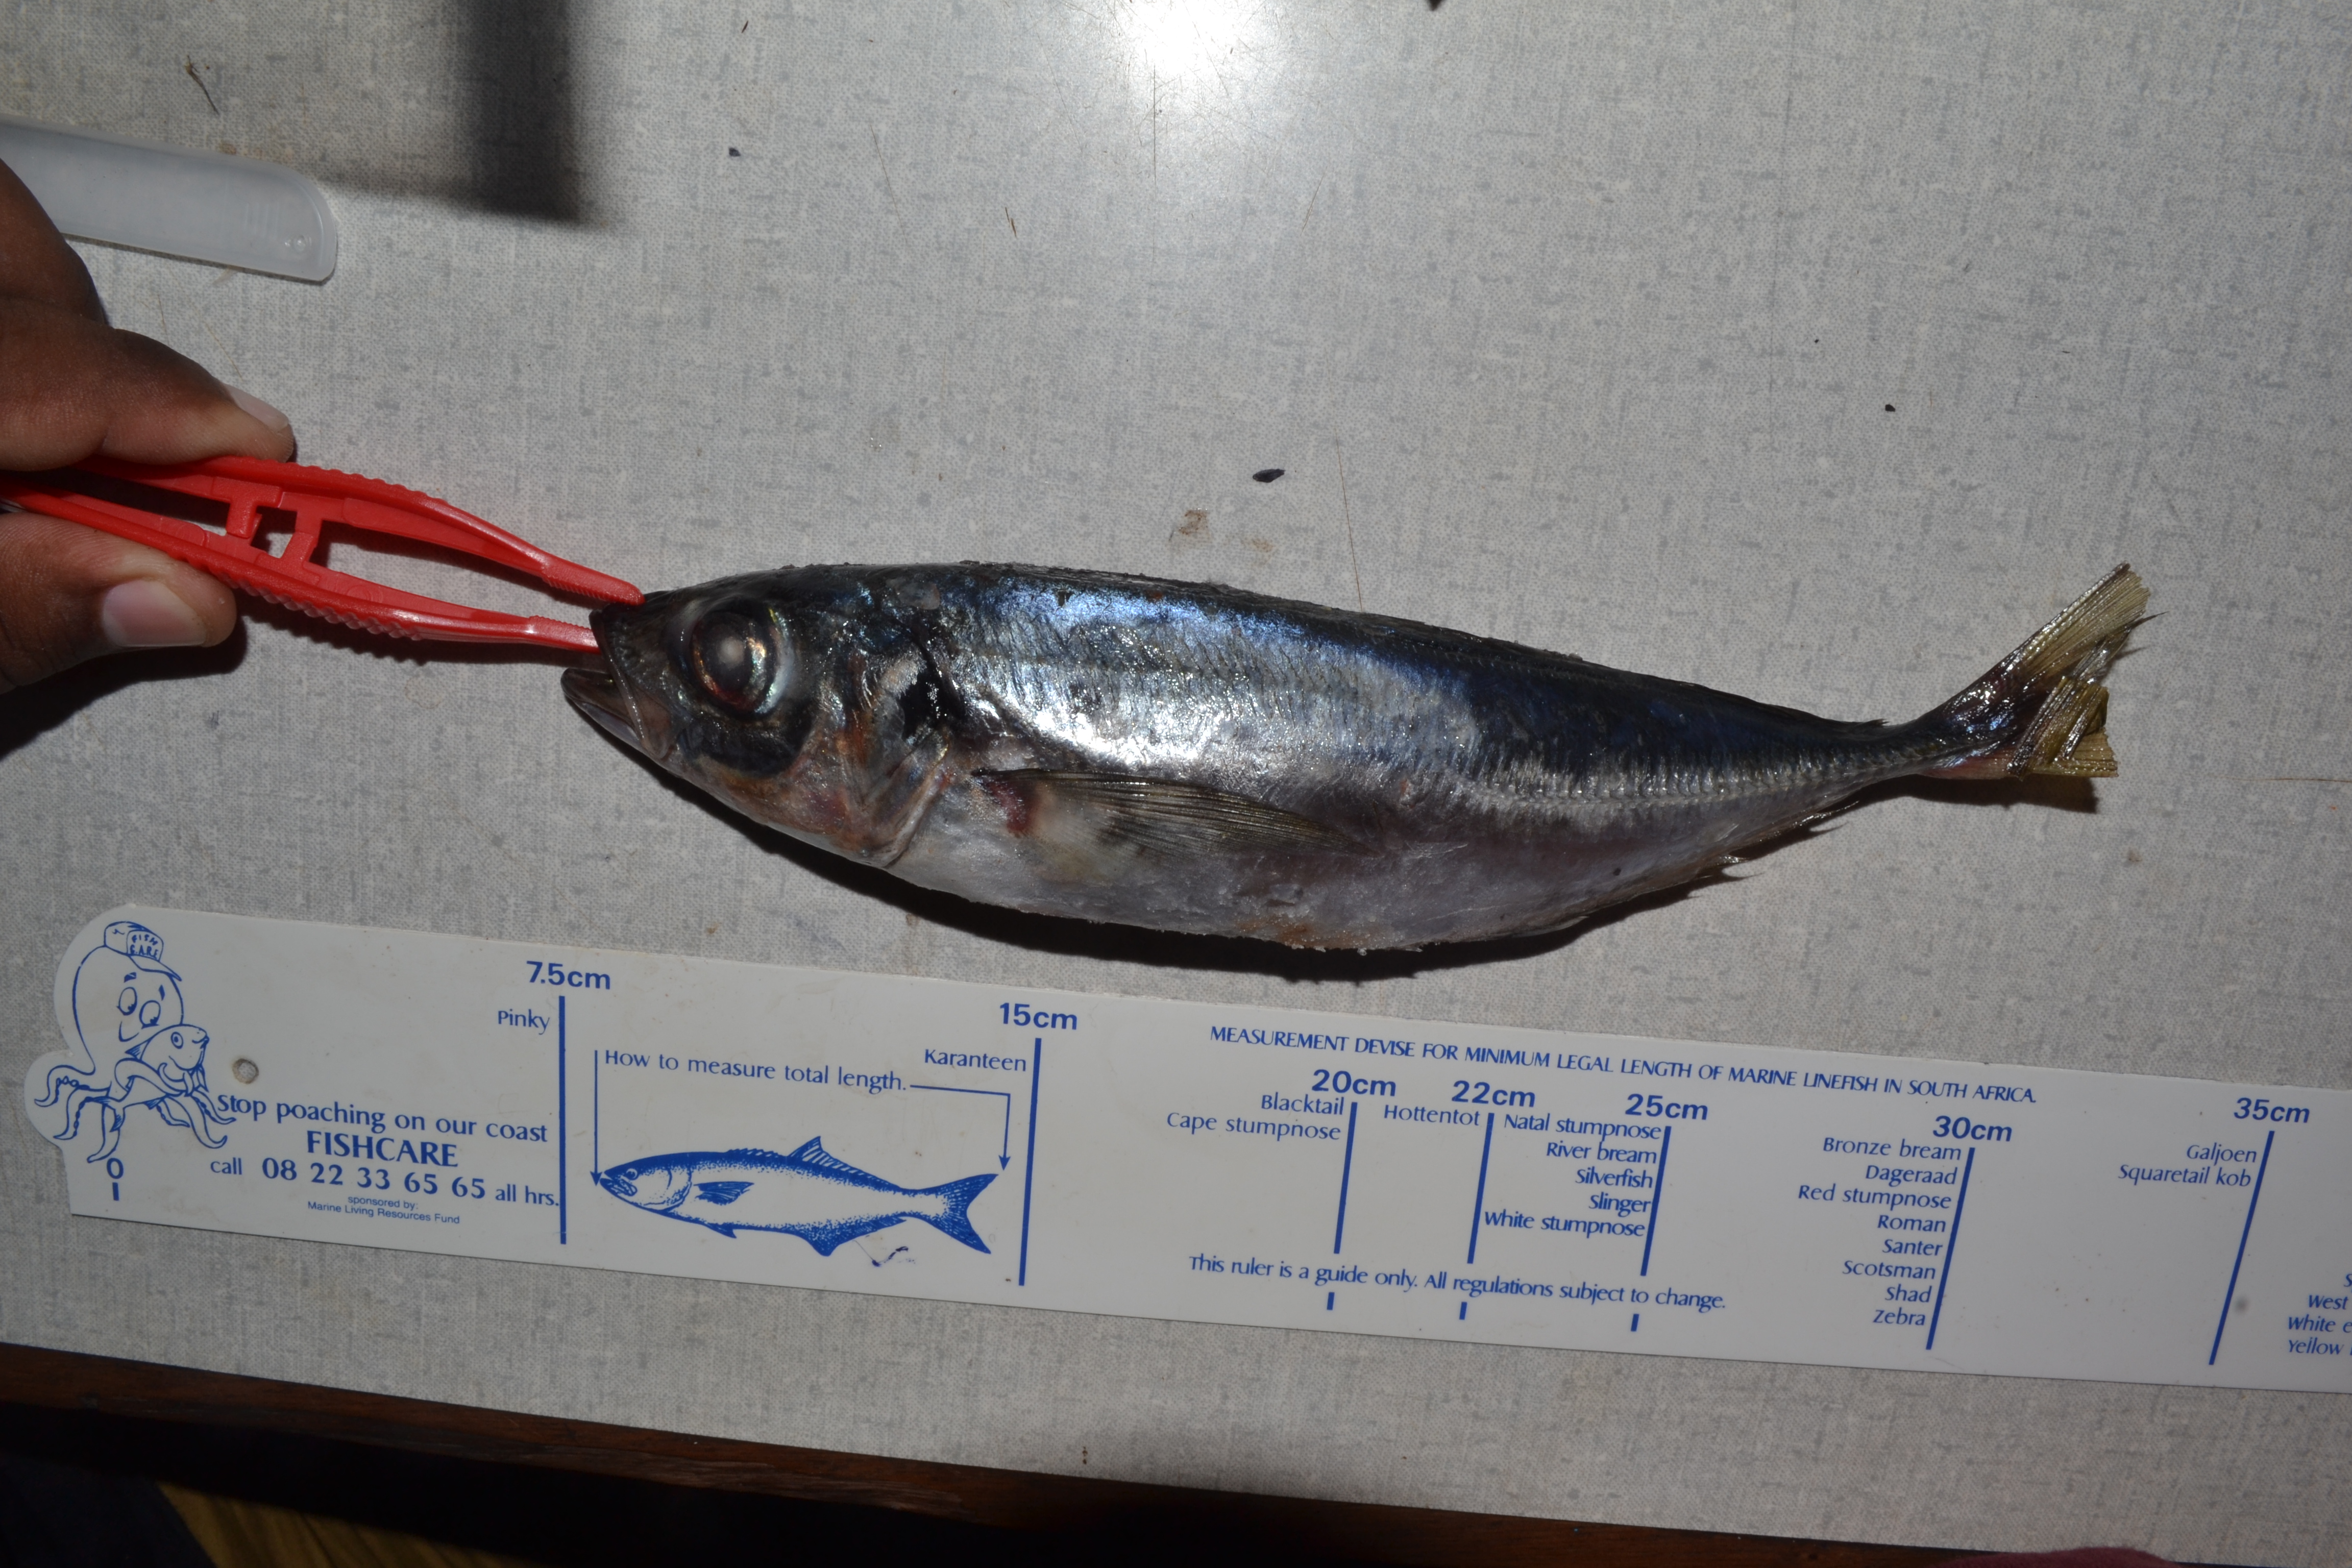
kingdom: Animalia
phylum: Chordata
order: Perciformes
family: Carangidae
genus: Trachurus
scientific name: Trachurus trachurus
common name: Horse mackerel
